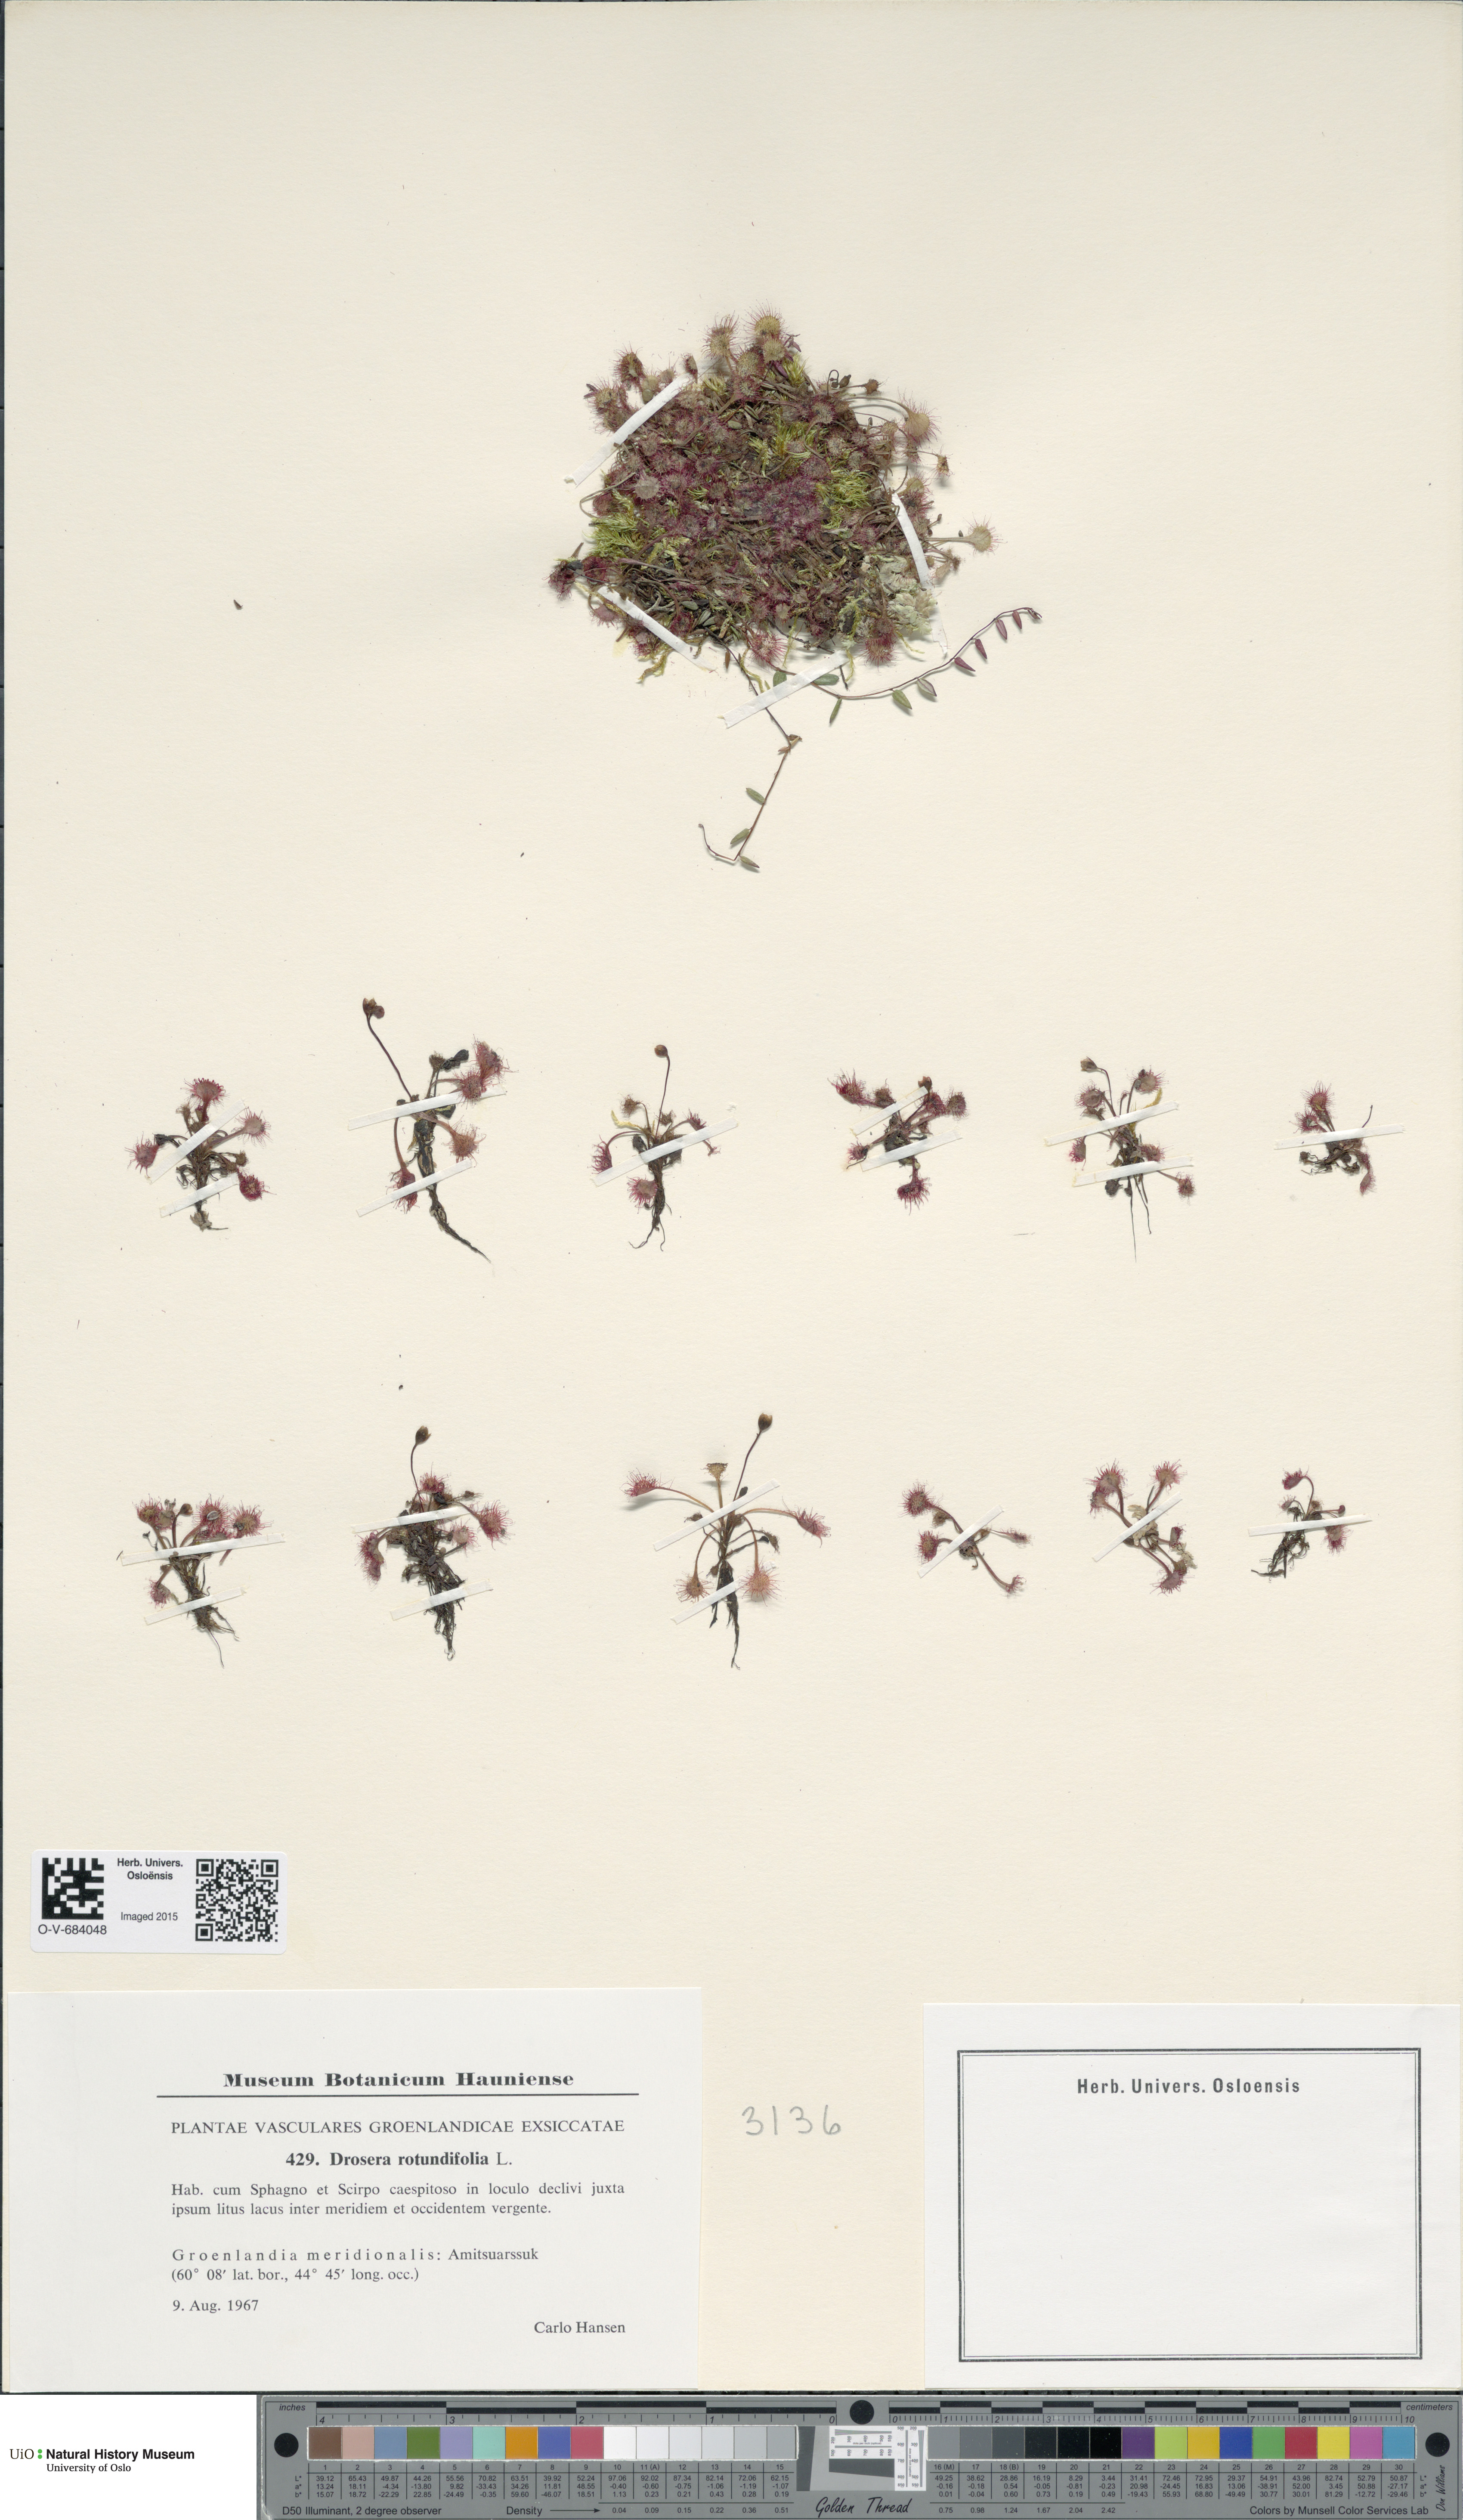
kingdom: Plantae
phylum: Tracheophyta
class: Magnoliopsida
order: Caryophyllales
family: Droseraceae
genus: Drosera
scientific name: Drosera rotundifolia
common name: Round-leaved sundew
